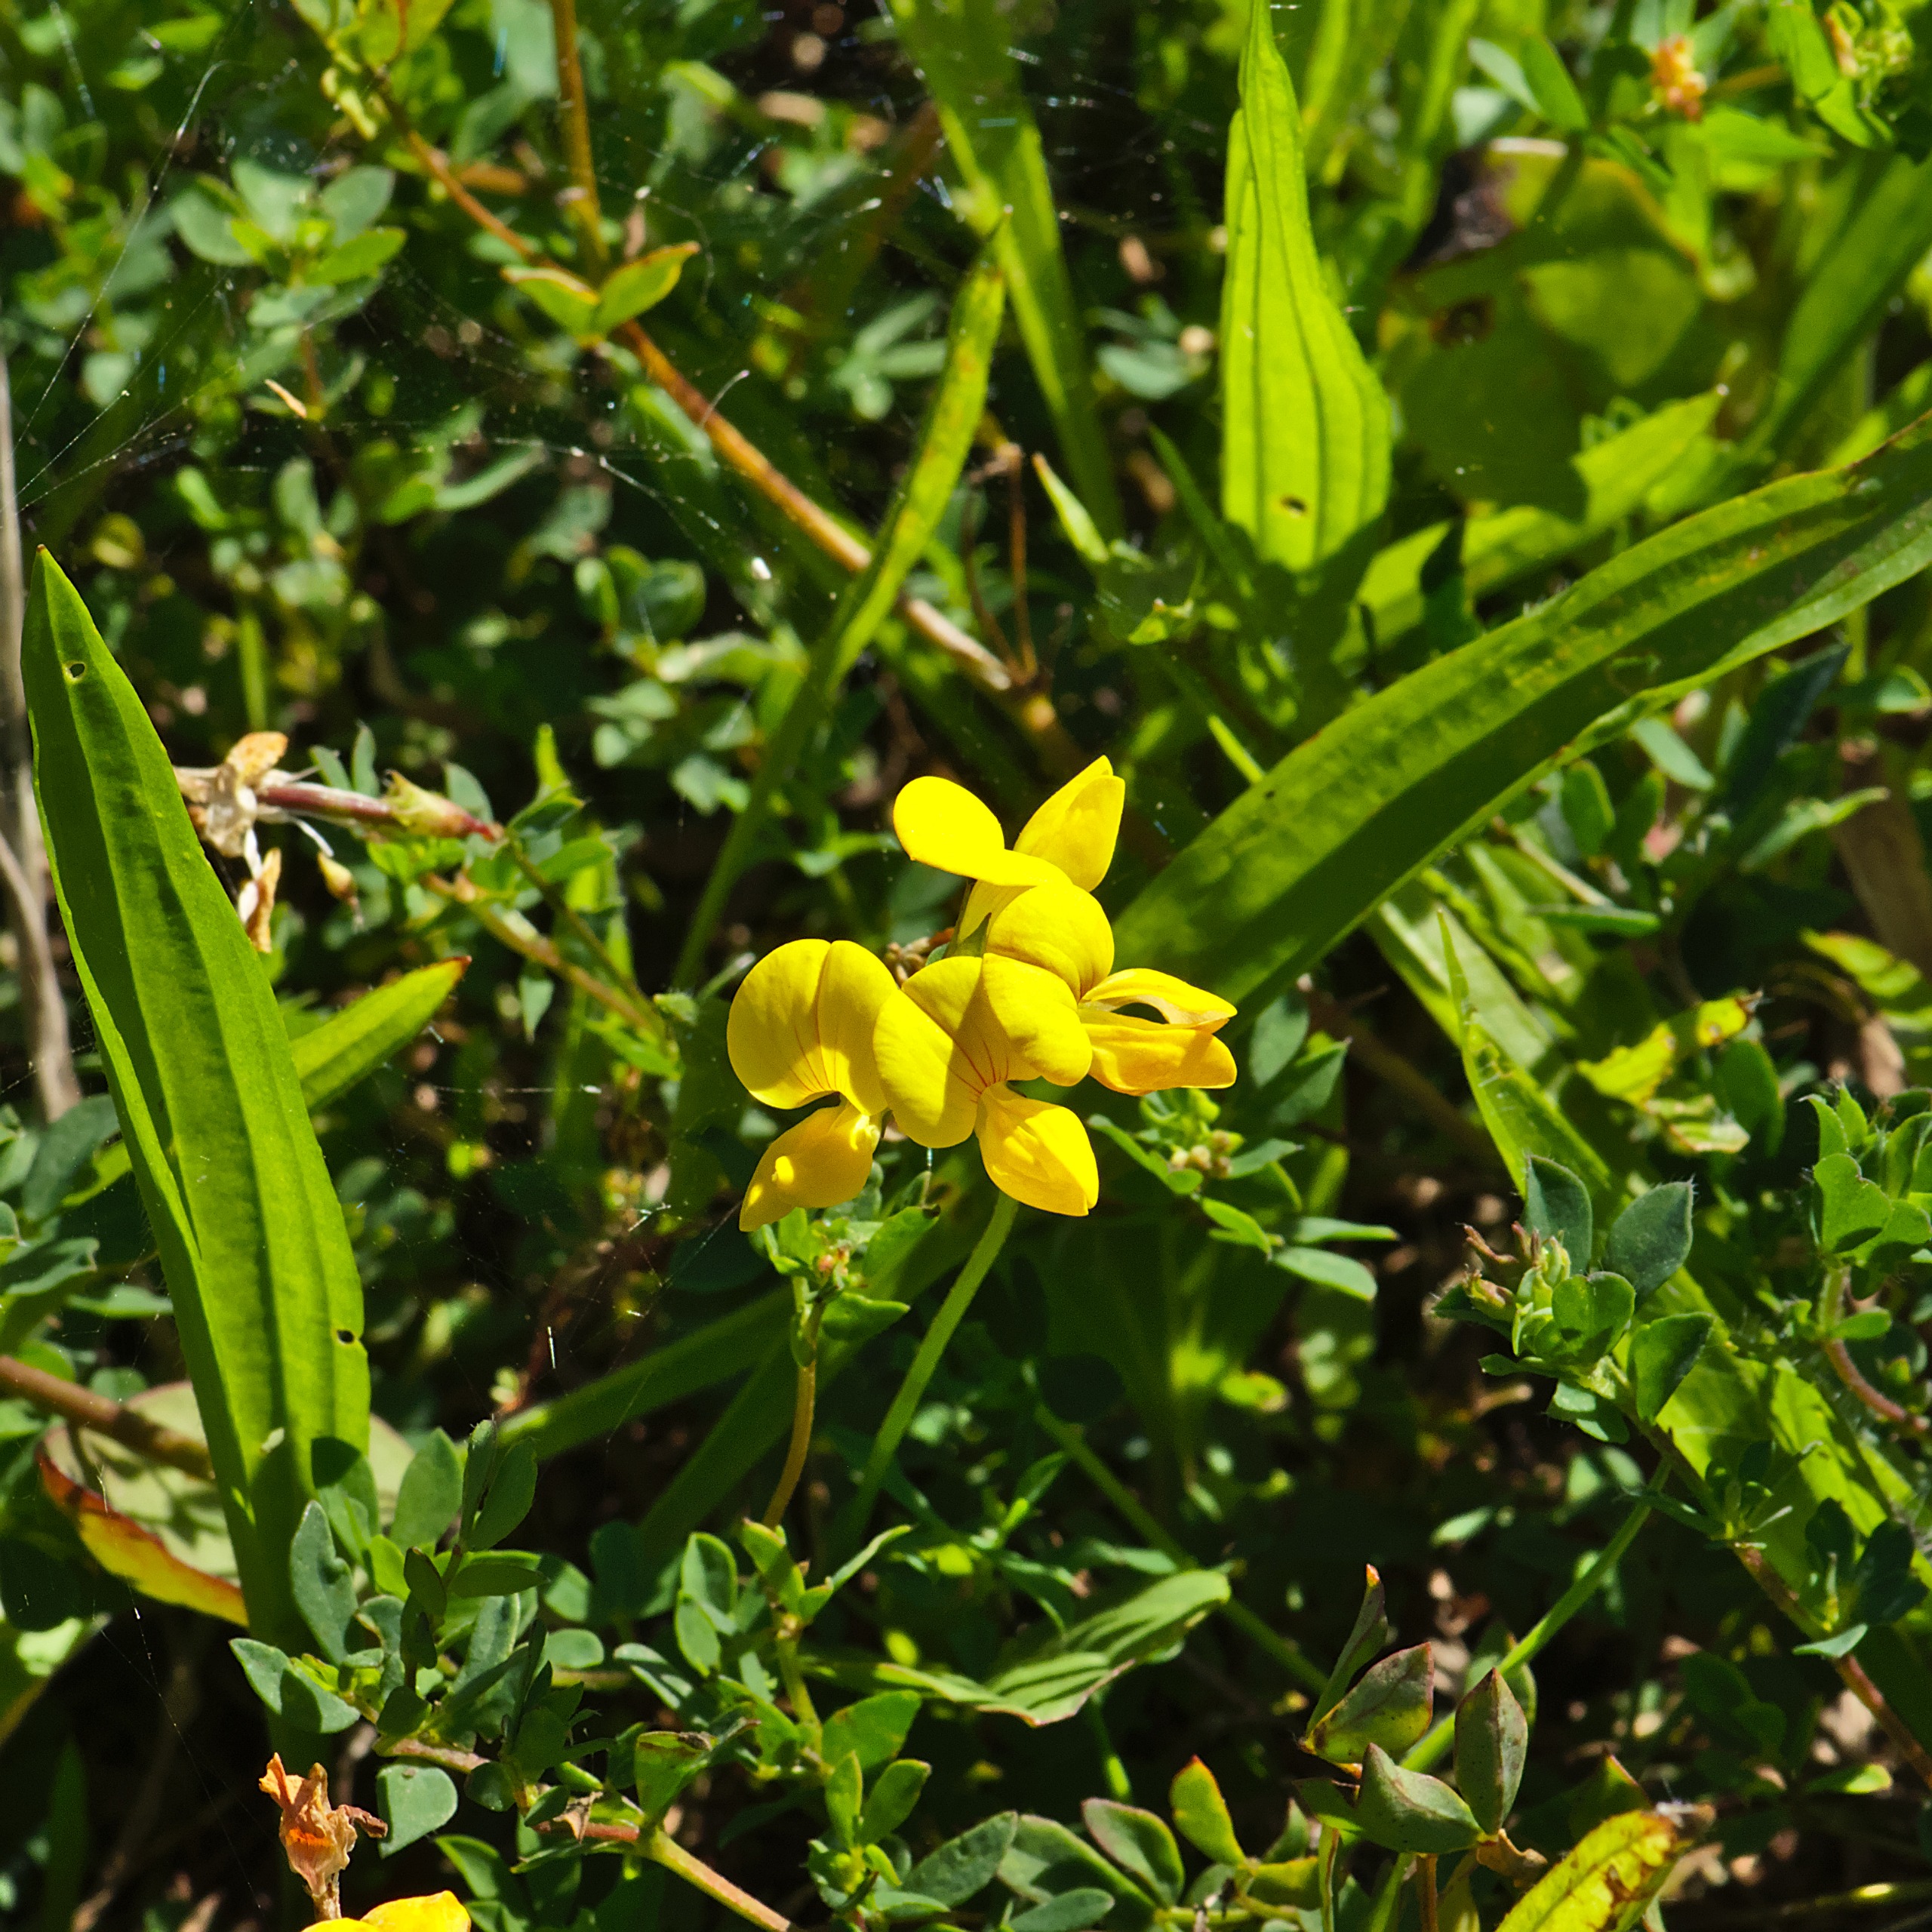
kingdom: Plantae
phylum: Tracheophyta
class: Magnoliopsida
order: Fabales
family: Fabaceae
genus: Lotus
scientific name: Lotus corniculatus
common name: Almindelig kællingetand
